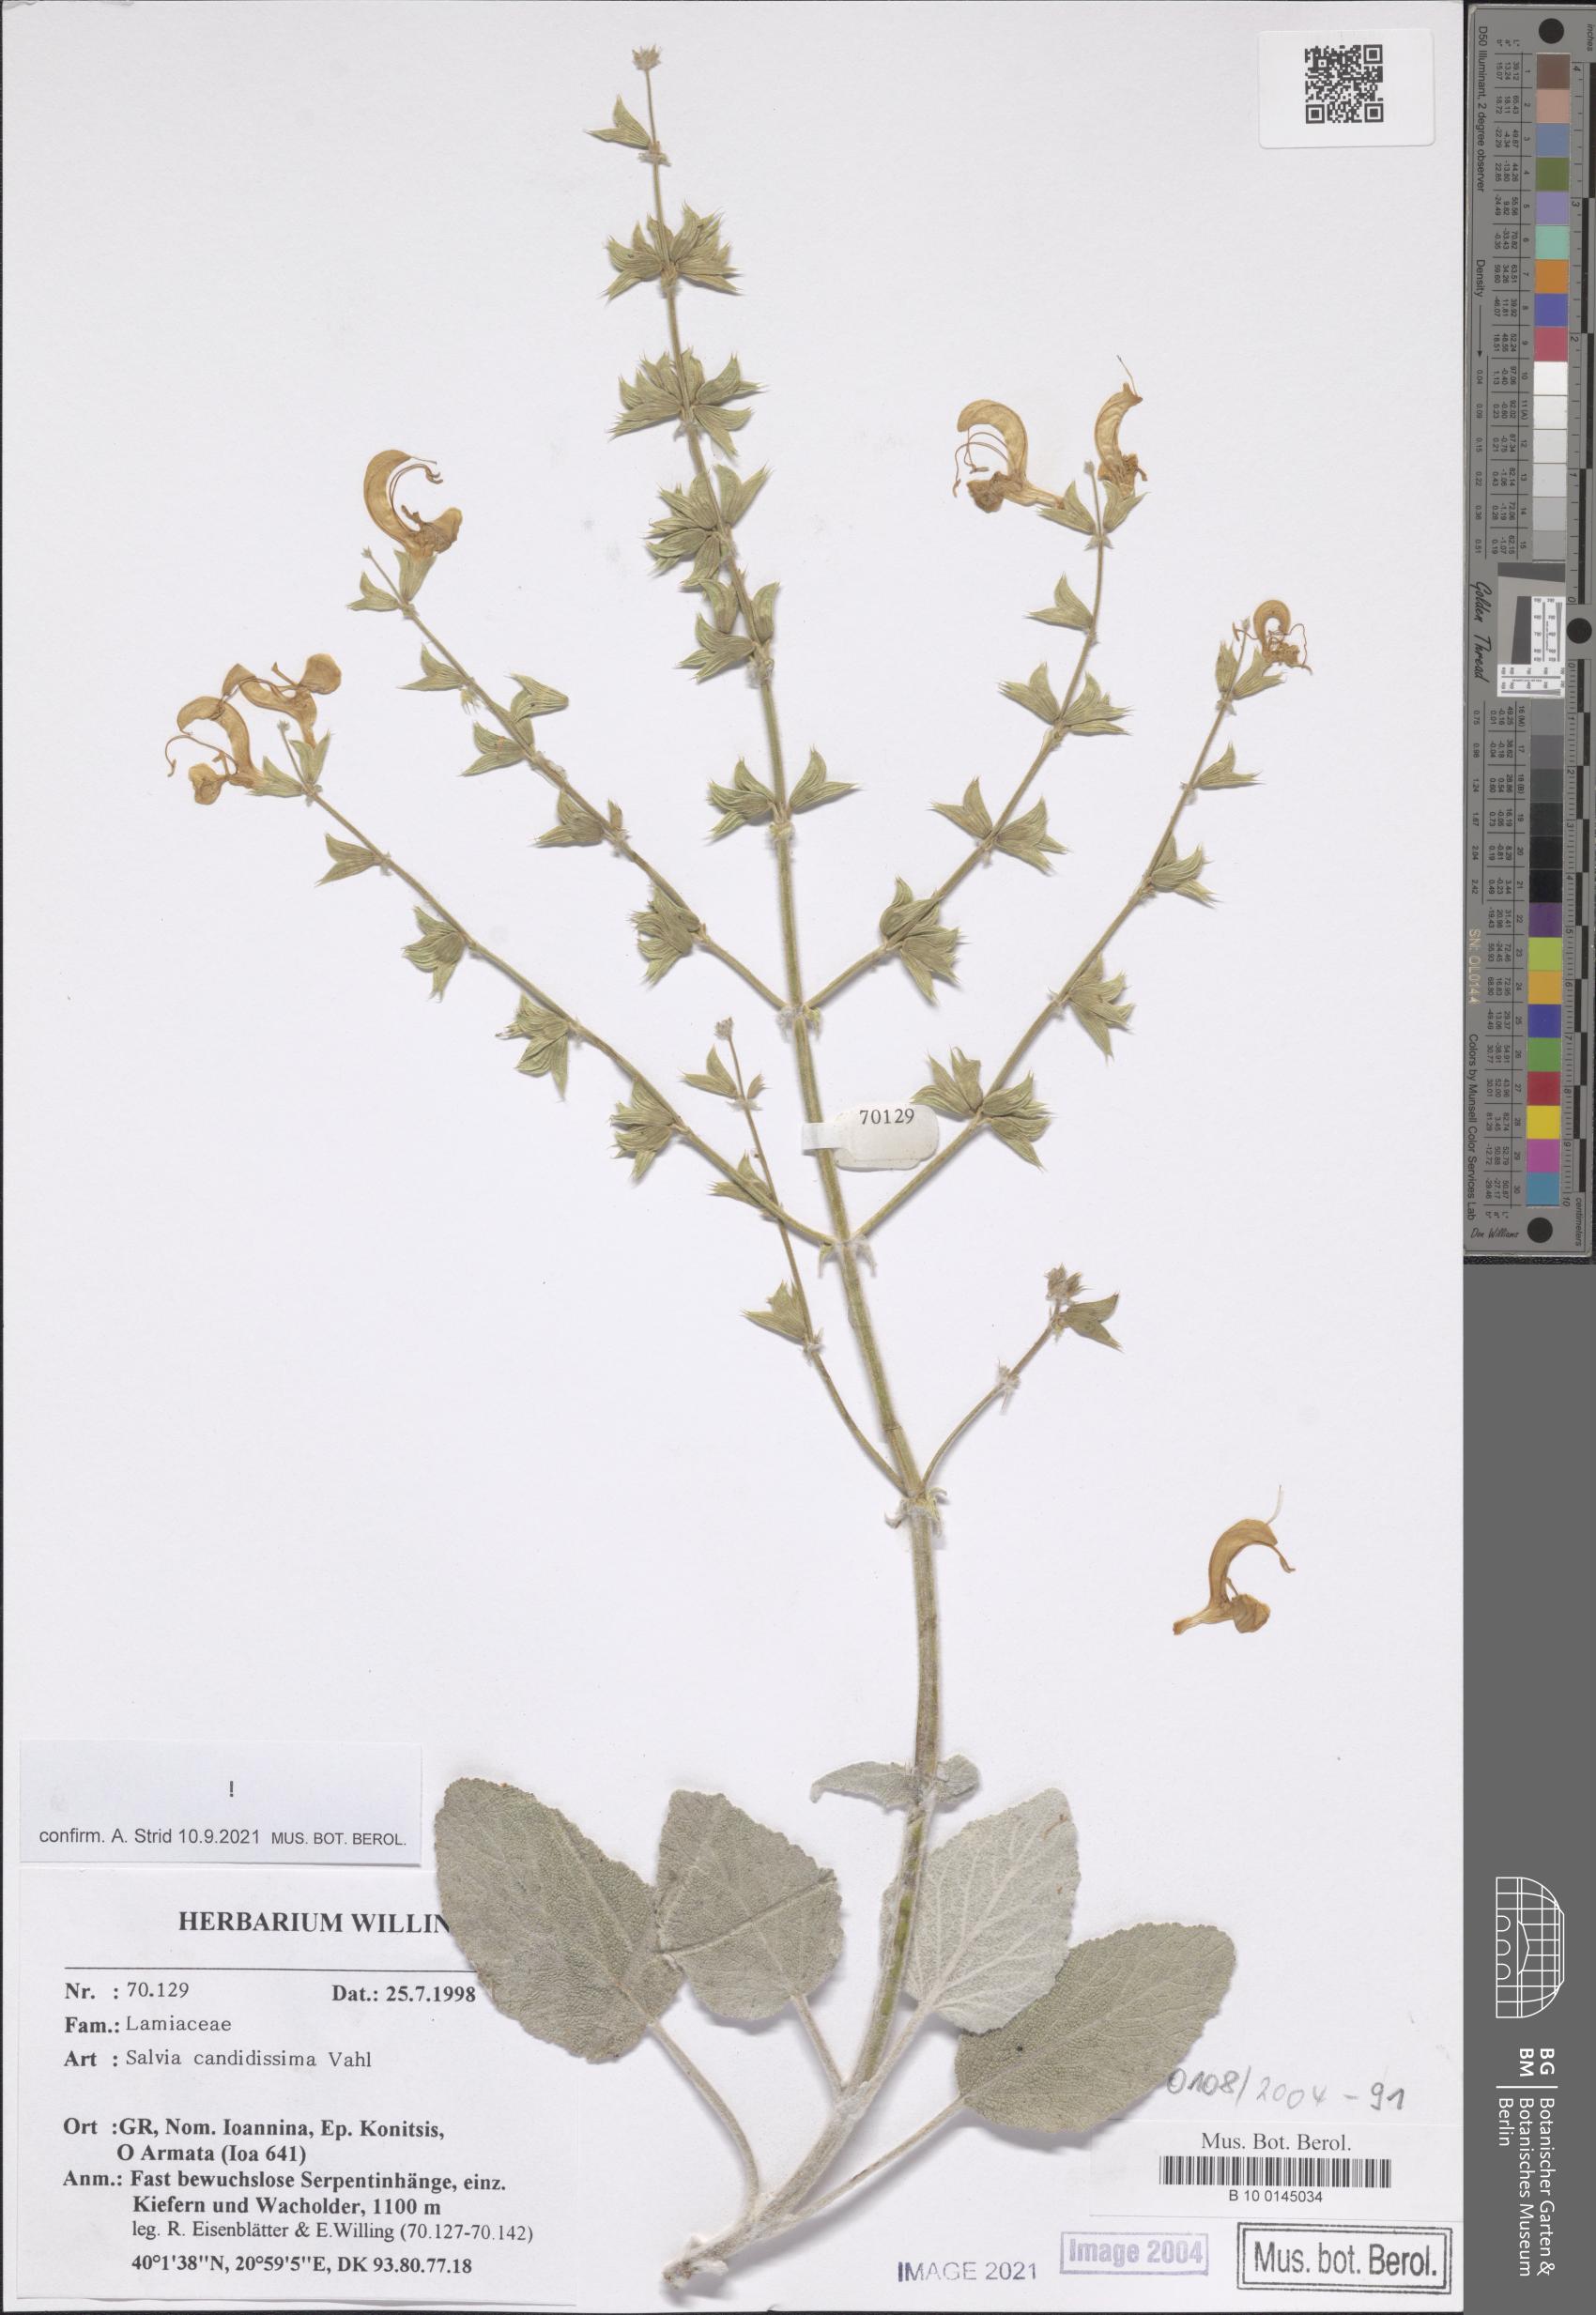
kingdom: Plantae
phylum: Tracheophyta
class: Magnoliopsida
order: Lamiales
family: Lamiaceae
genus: Salvia
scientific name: Salvia candidissima
